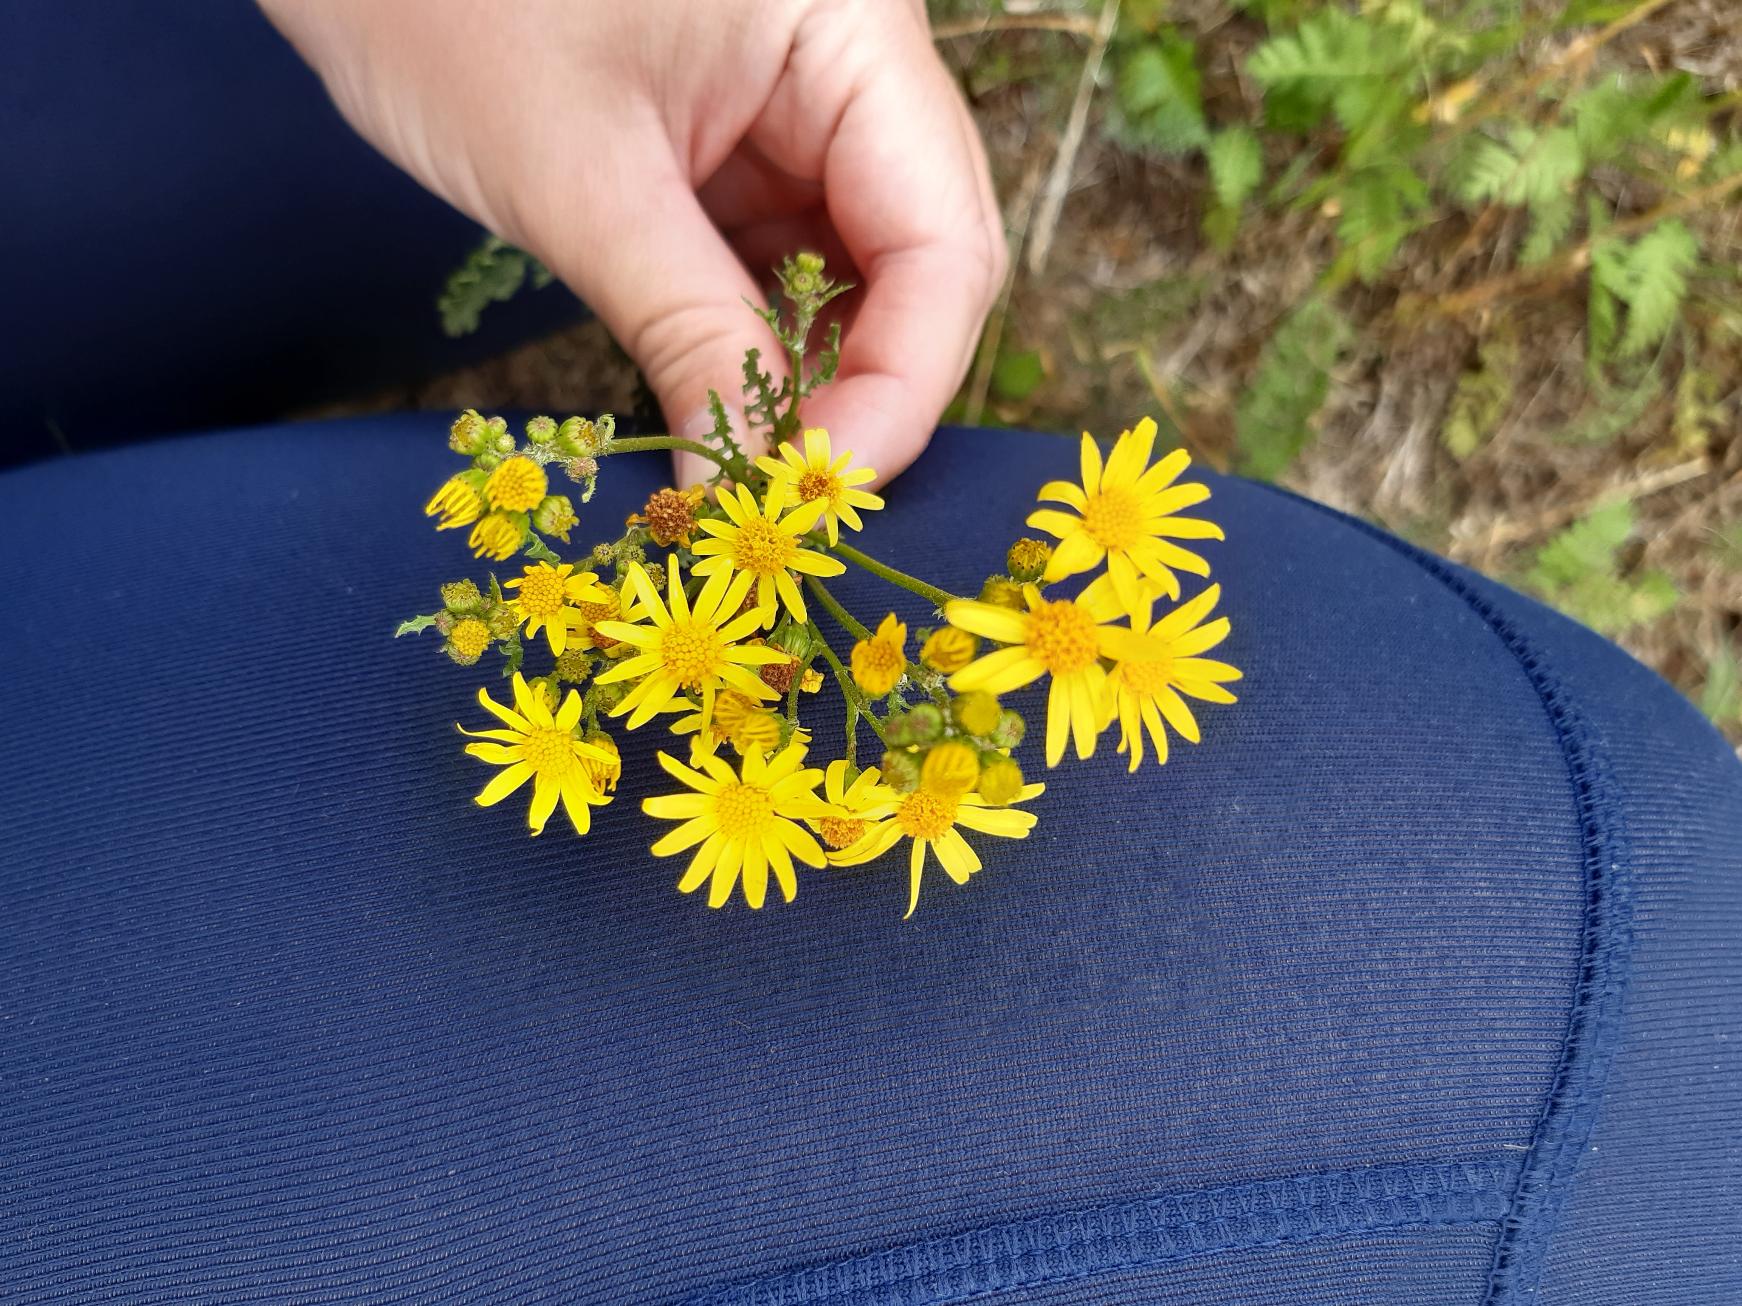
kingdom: Plantae
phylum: Tracheophyta
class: Magnoliopsida
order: Asterales
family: Asteraceae
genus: Jacobaea
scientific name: Jacobaea vulgaris
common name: Eng-brandbæger
